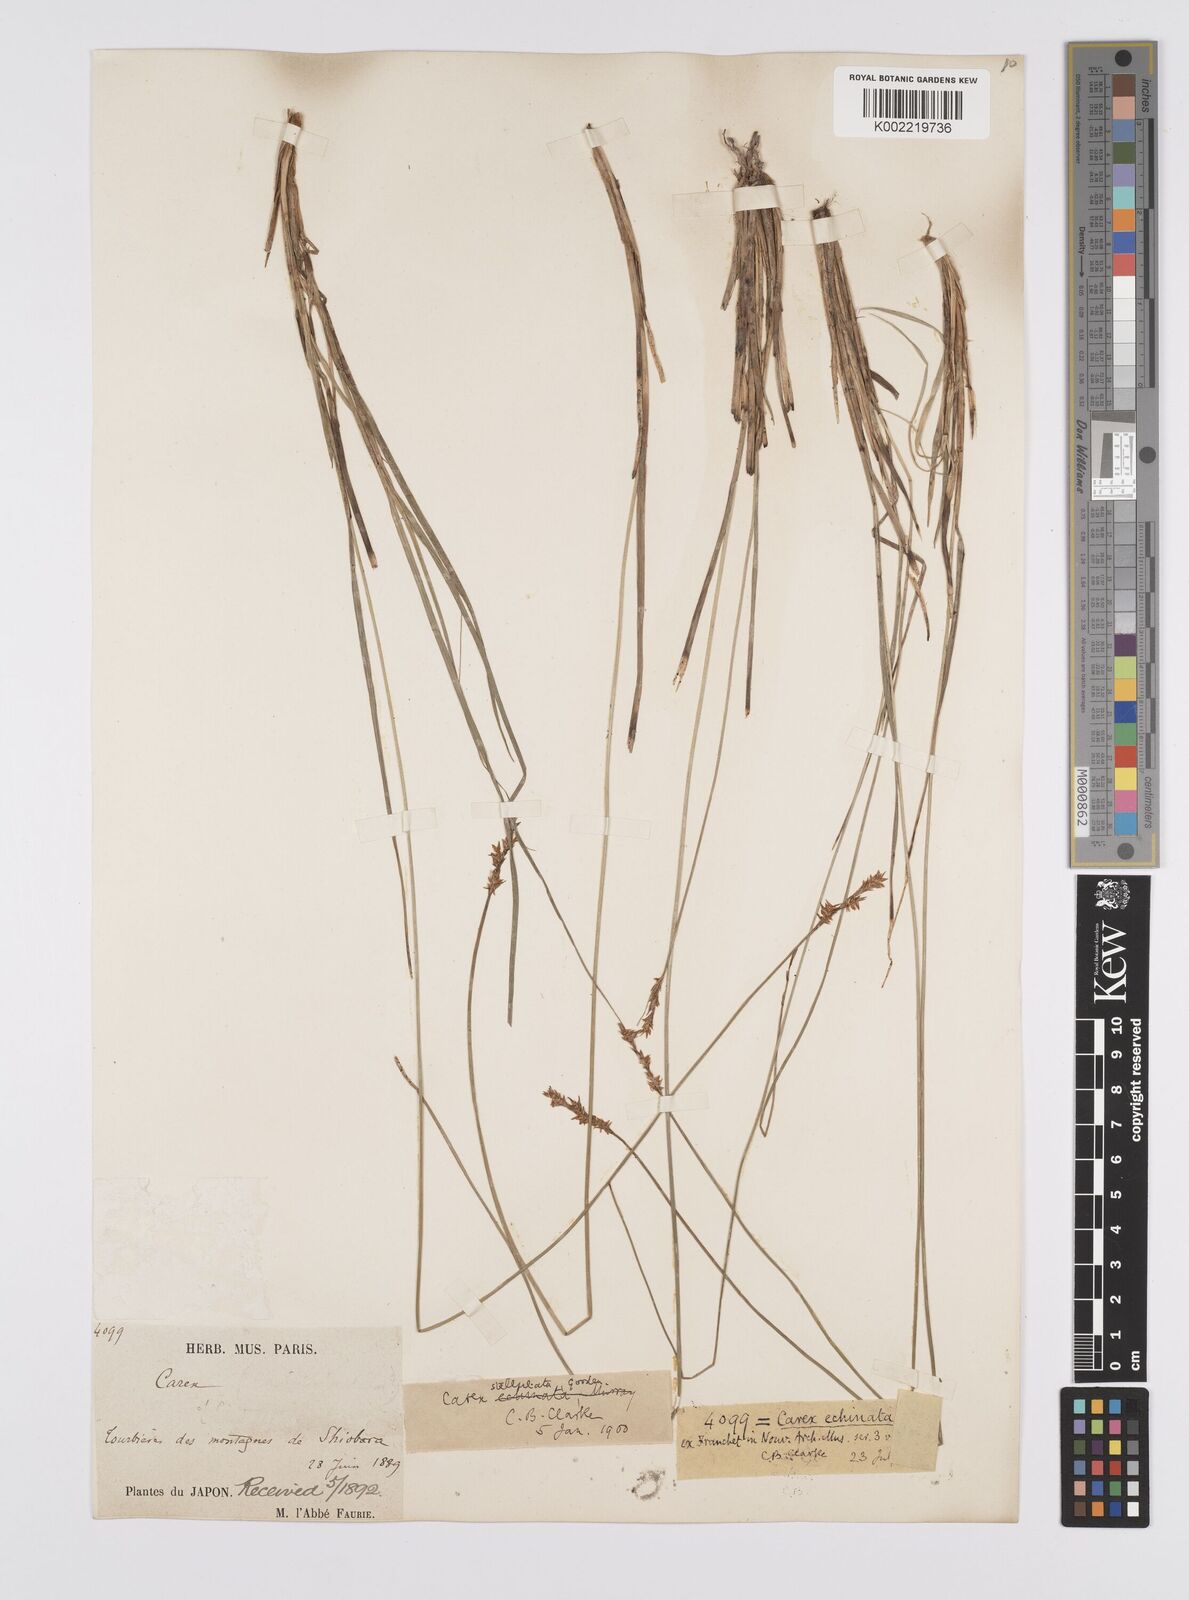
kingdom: Plantae
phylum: Tracheophyta
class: Liliopsida
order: Poales
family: Cyperaceae
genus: Carex
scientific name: Carex echinata
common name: Star sedge
